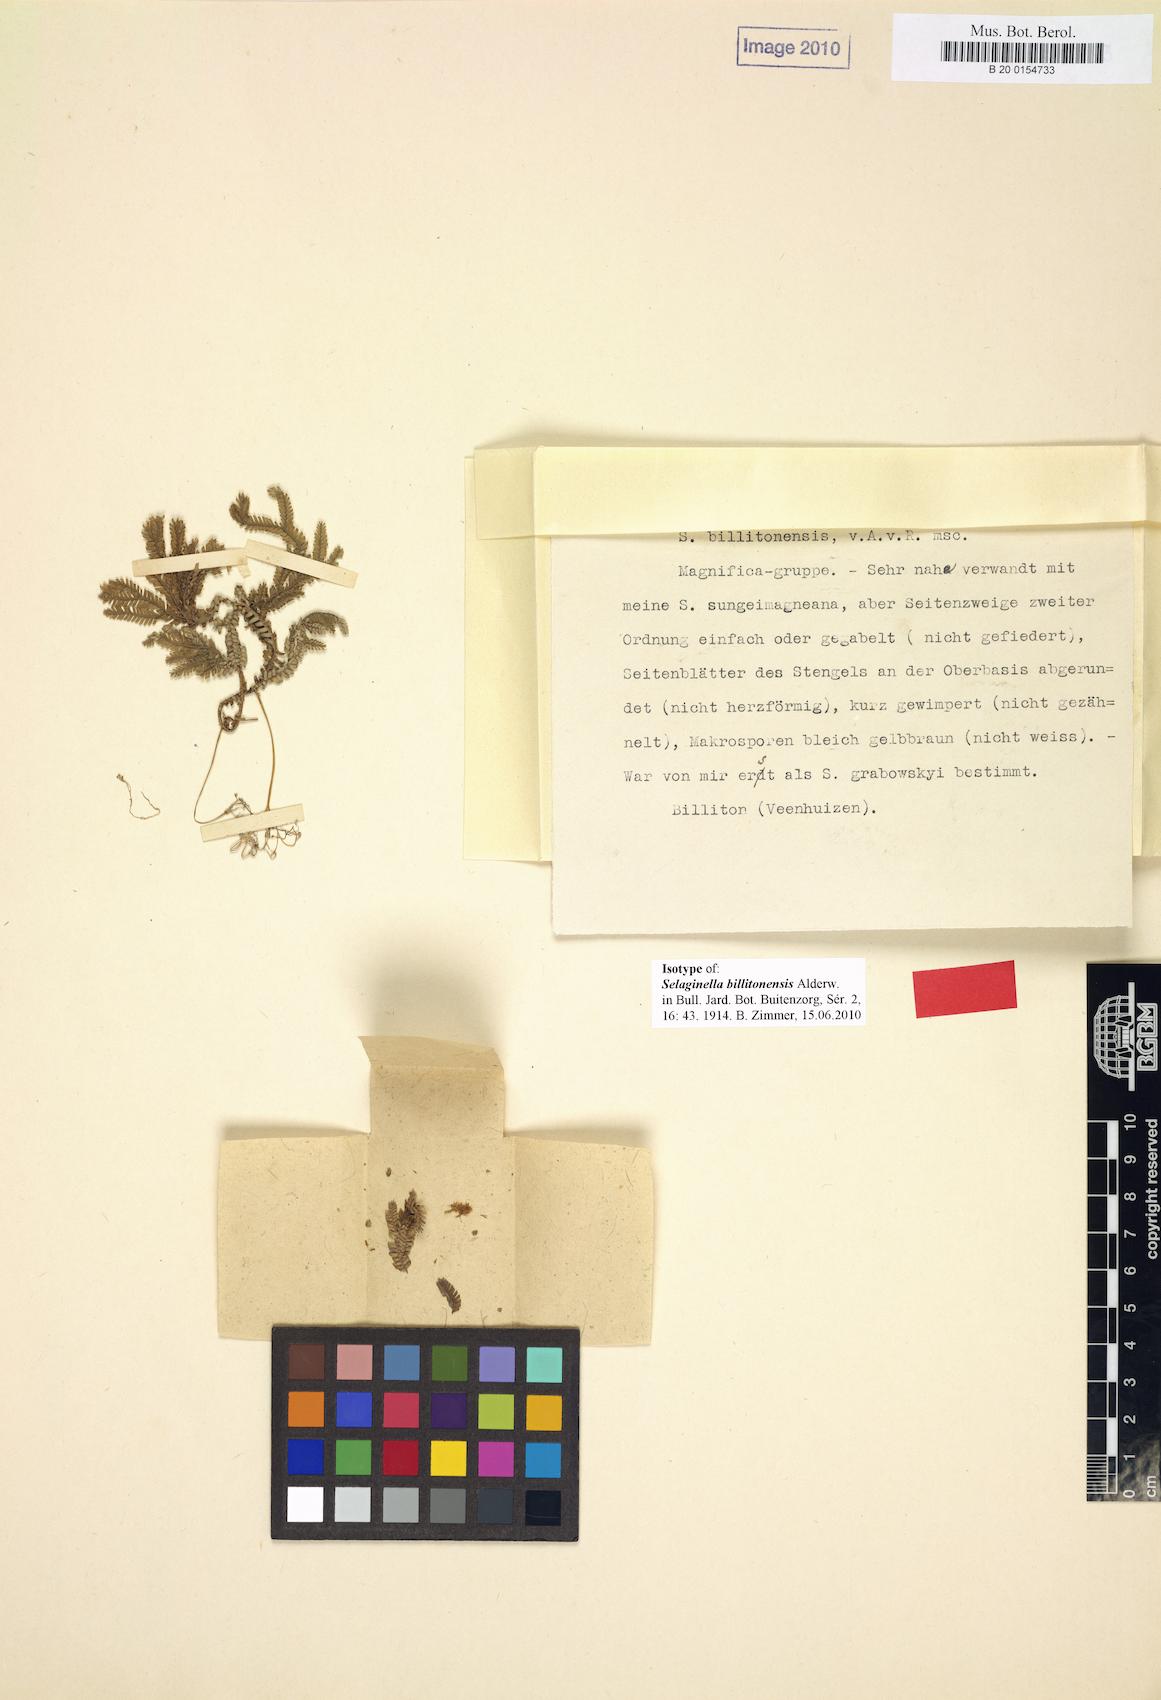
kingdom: Plantae
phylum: Tracheophyta
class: Lycopodiopsida
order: Selaginellales
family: Selaginellaceae
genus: Selaginella
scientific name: Selaginella longiaristata
